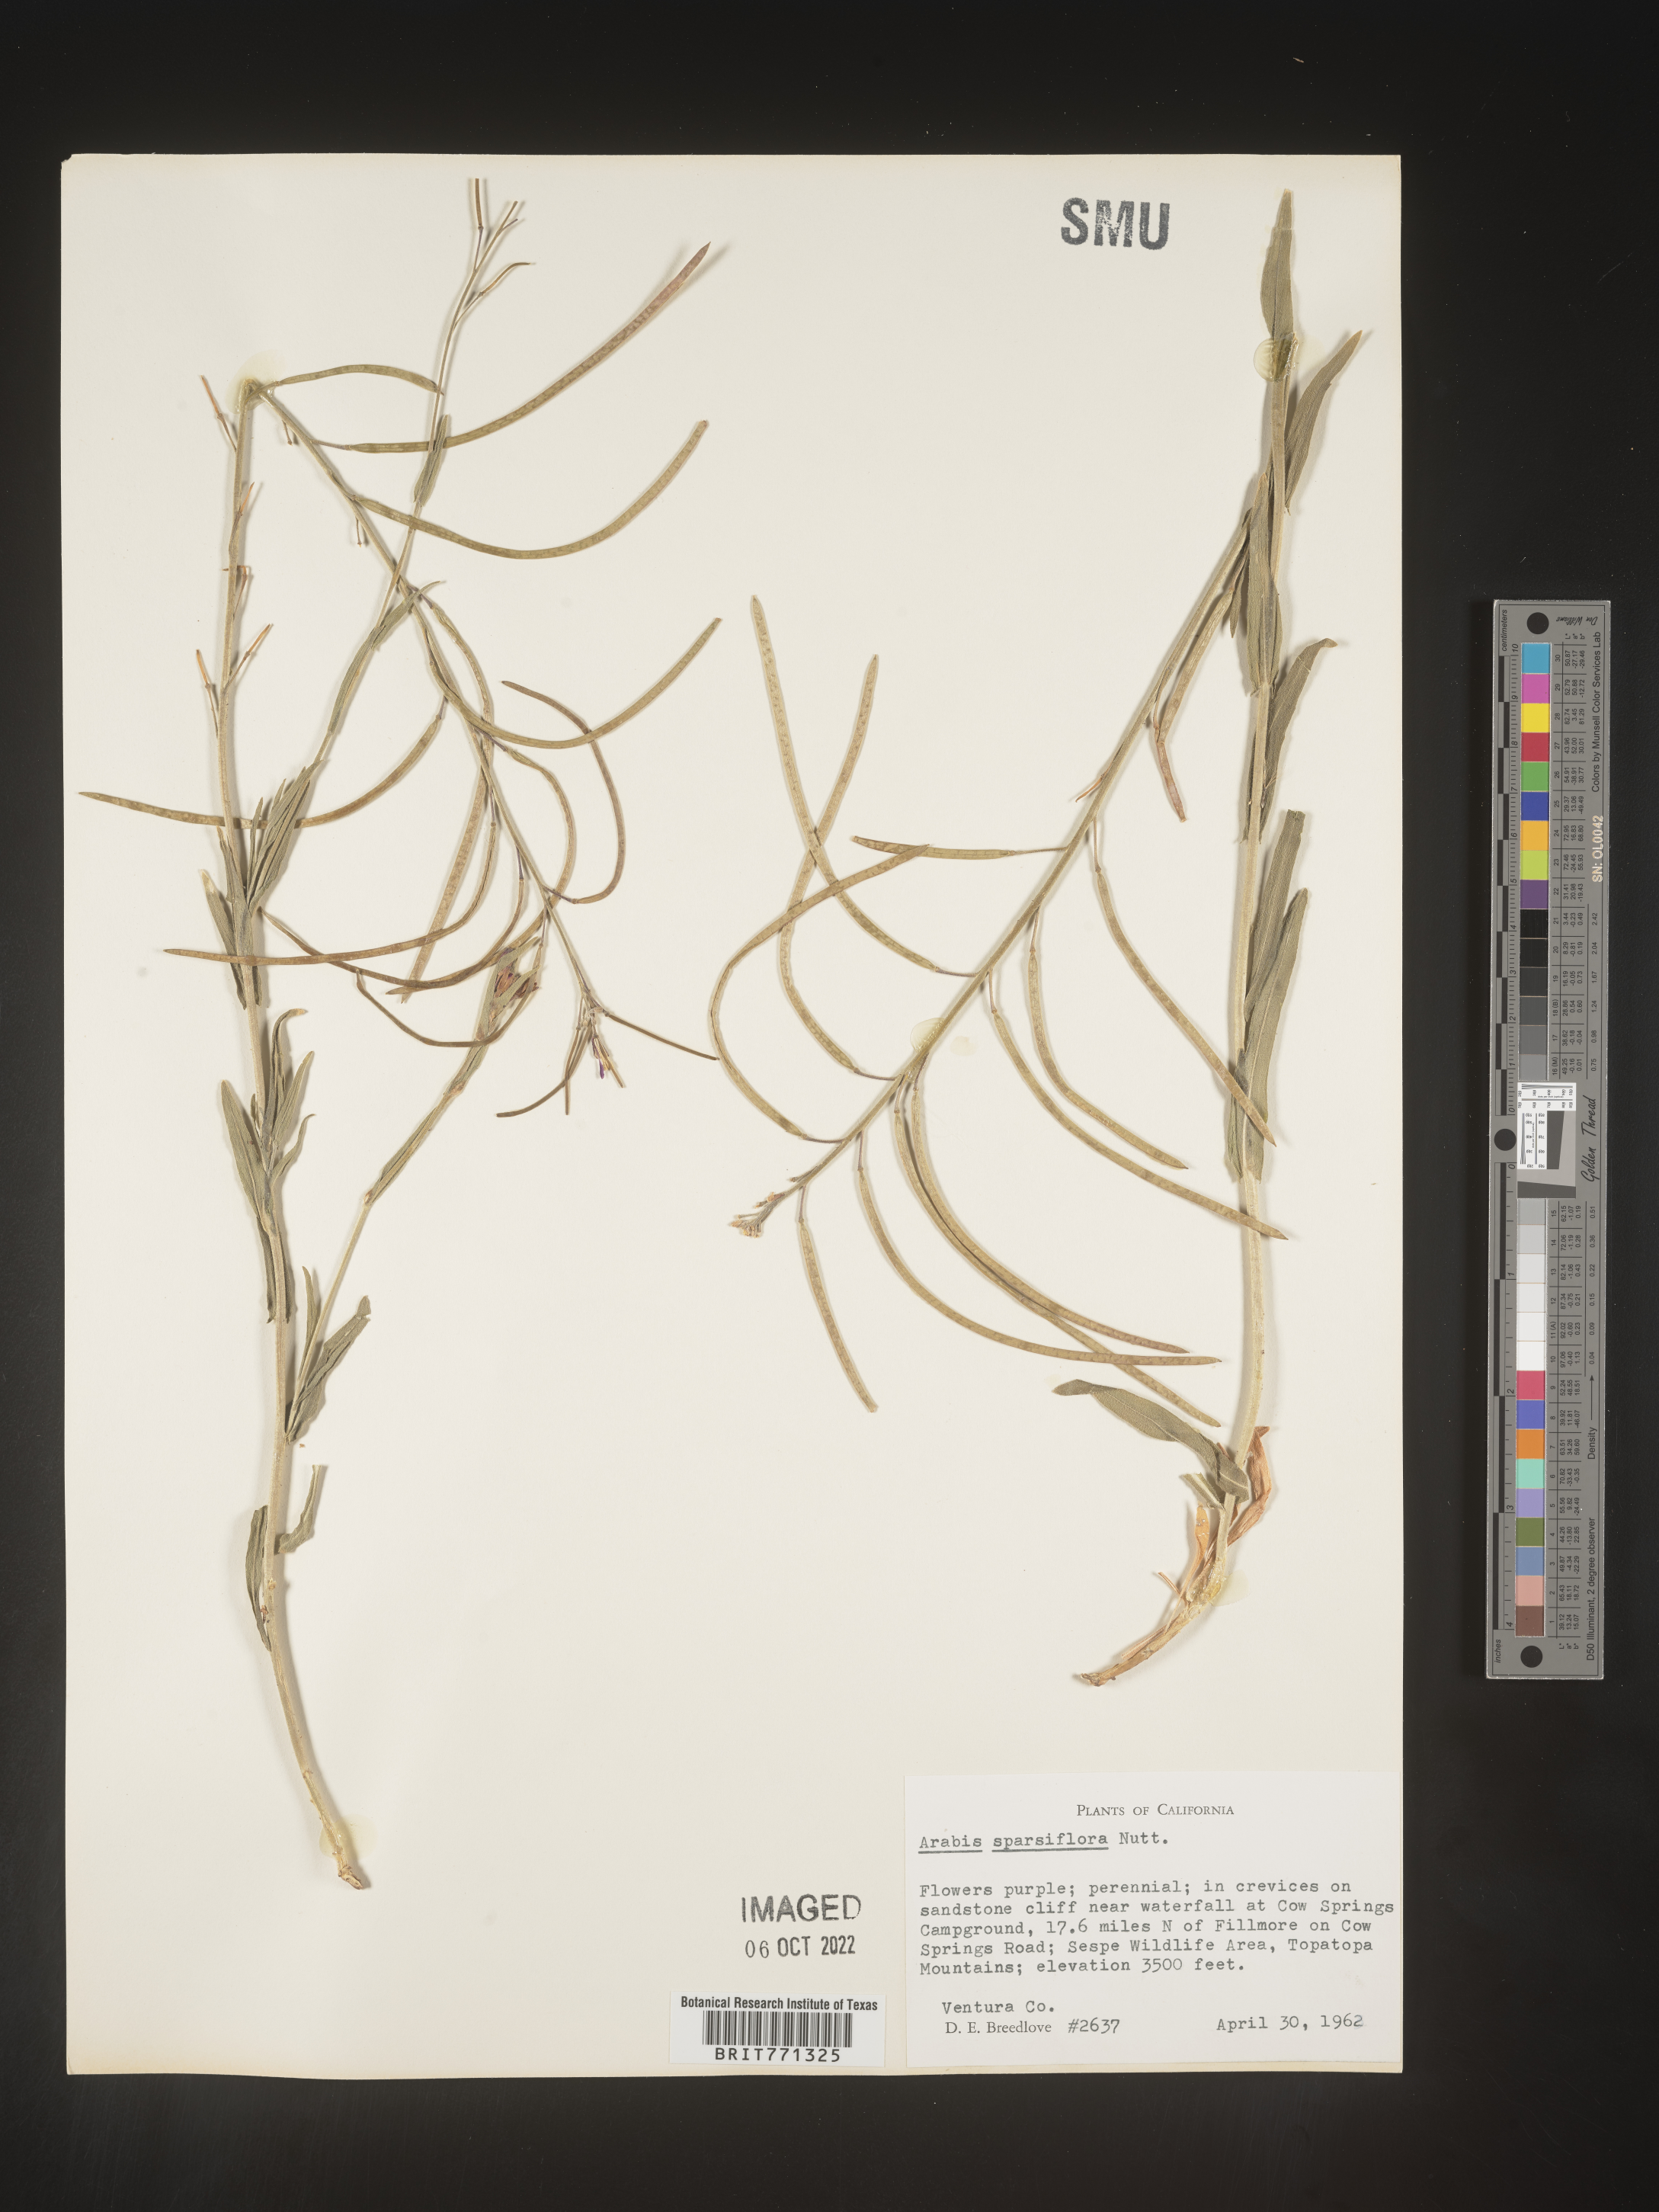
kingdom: Plantae
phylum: Tracheophyta
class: Magnoliopsida
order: Brassicales
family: Brassicaceae
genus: Arabis
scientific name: Arabis
